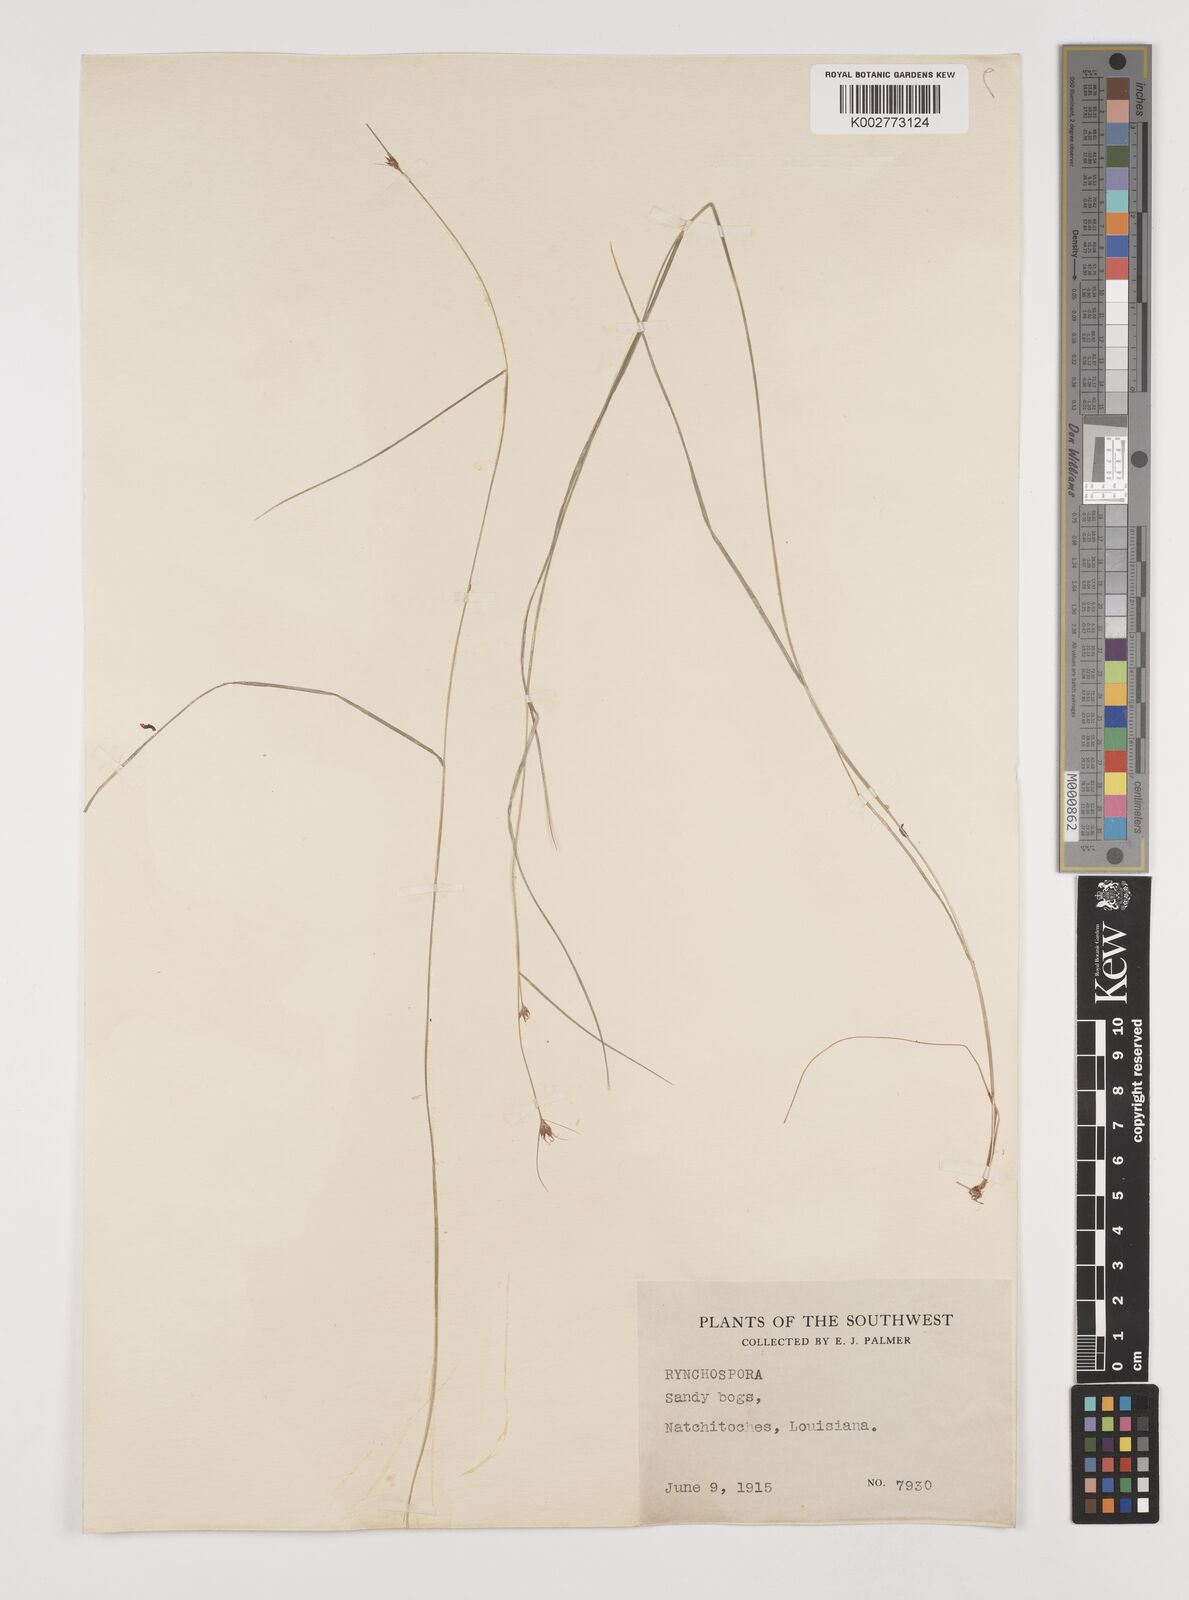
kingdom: Plantae
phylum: Tracheophyta
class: Liliopsida
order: Poales
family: Cyperaceae
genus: Rhynchospora
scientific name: Rhynchospora
